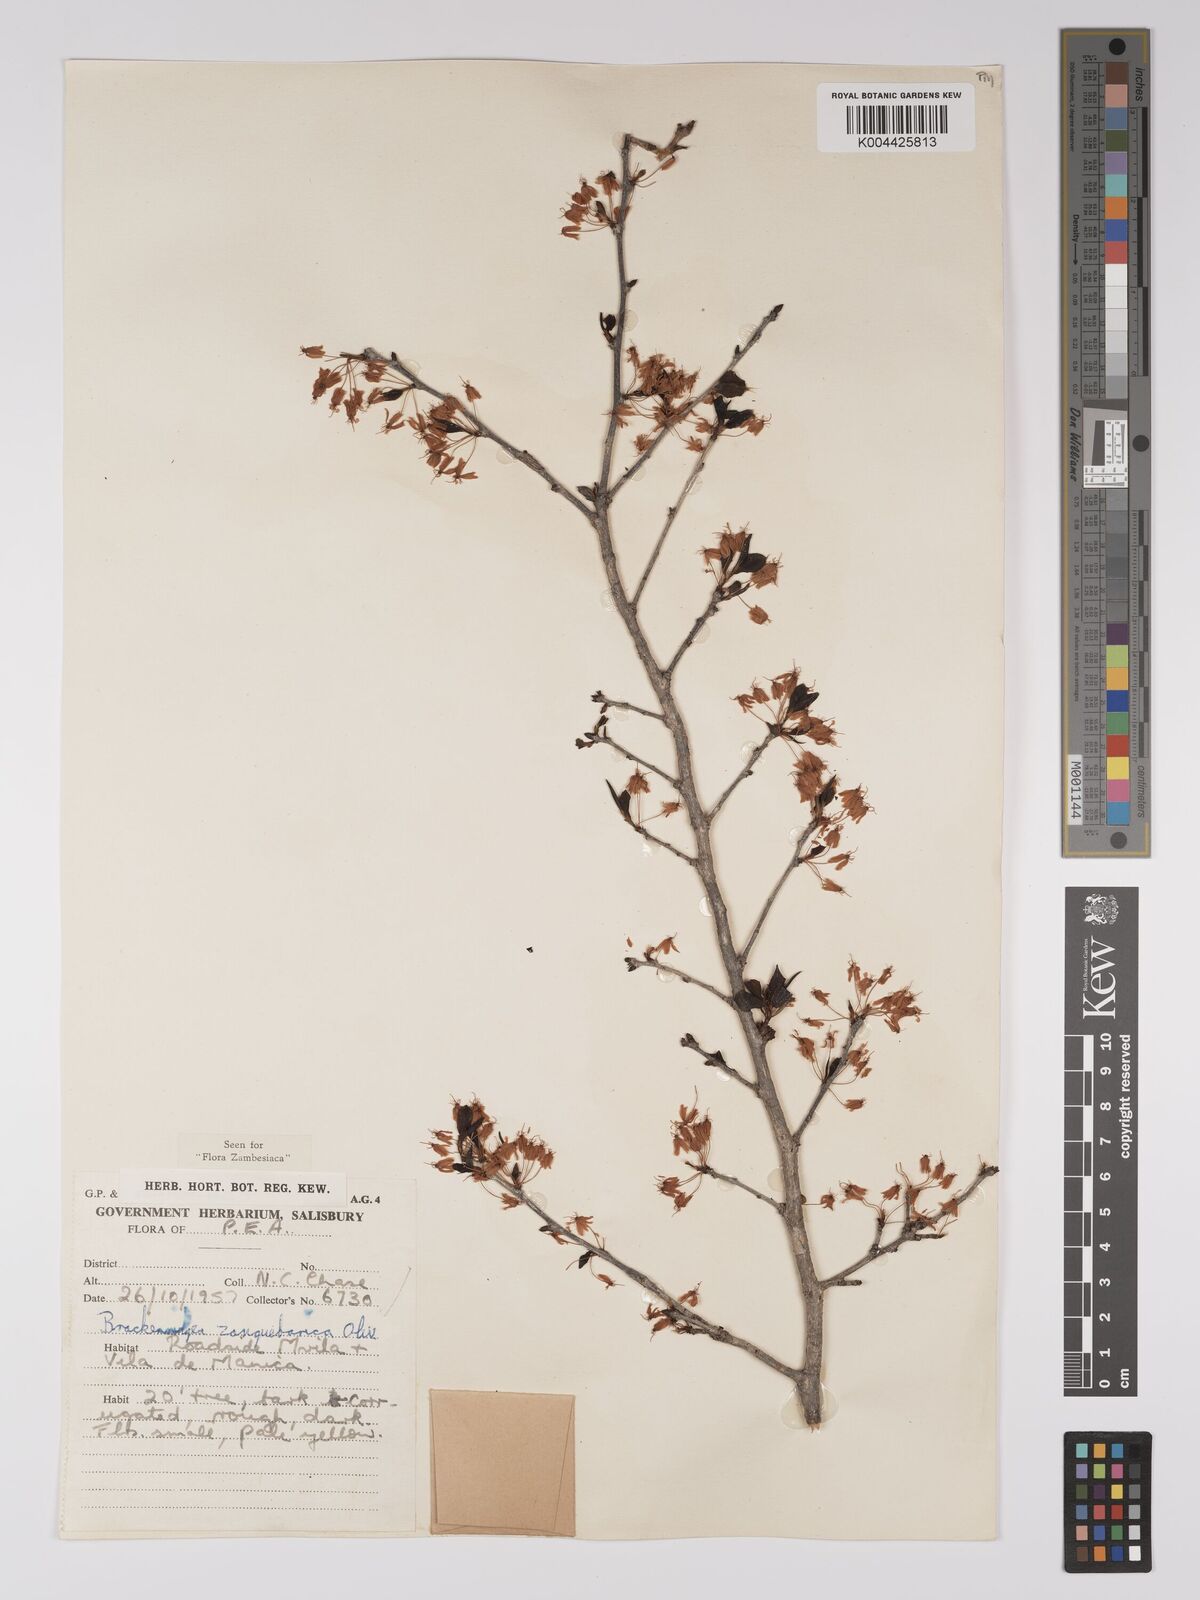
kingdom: Plantae
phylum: Tracheophyta
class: Magnoliopsida
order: Malpighiales
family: Ochnaceae
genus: Brackenridgea
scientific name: Brackenridgea zanguebarica
